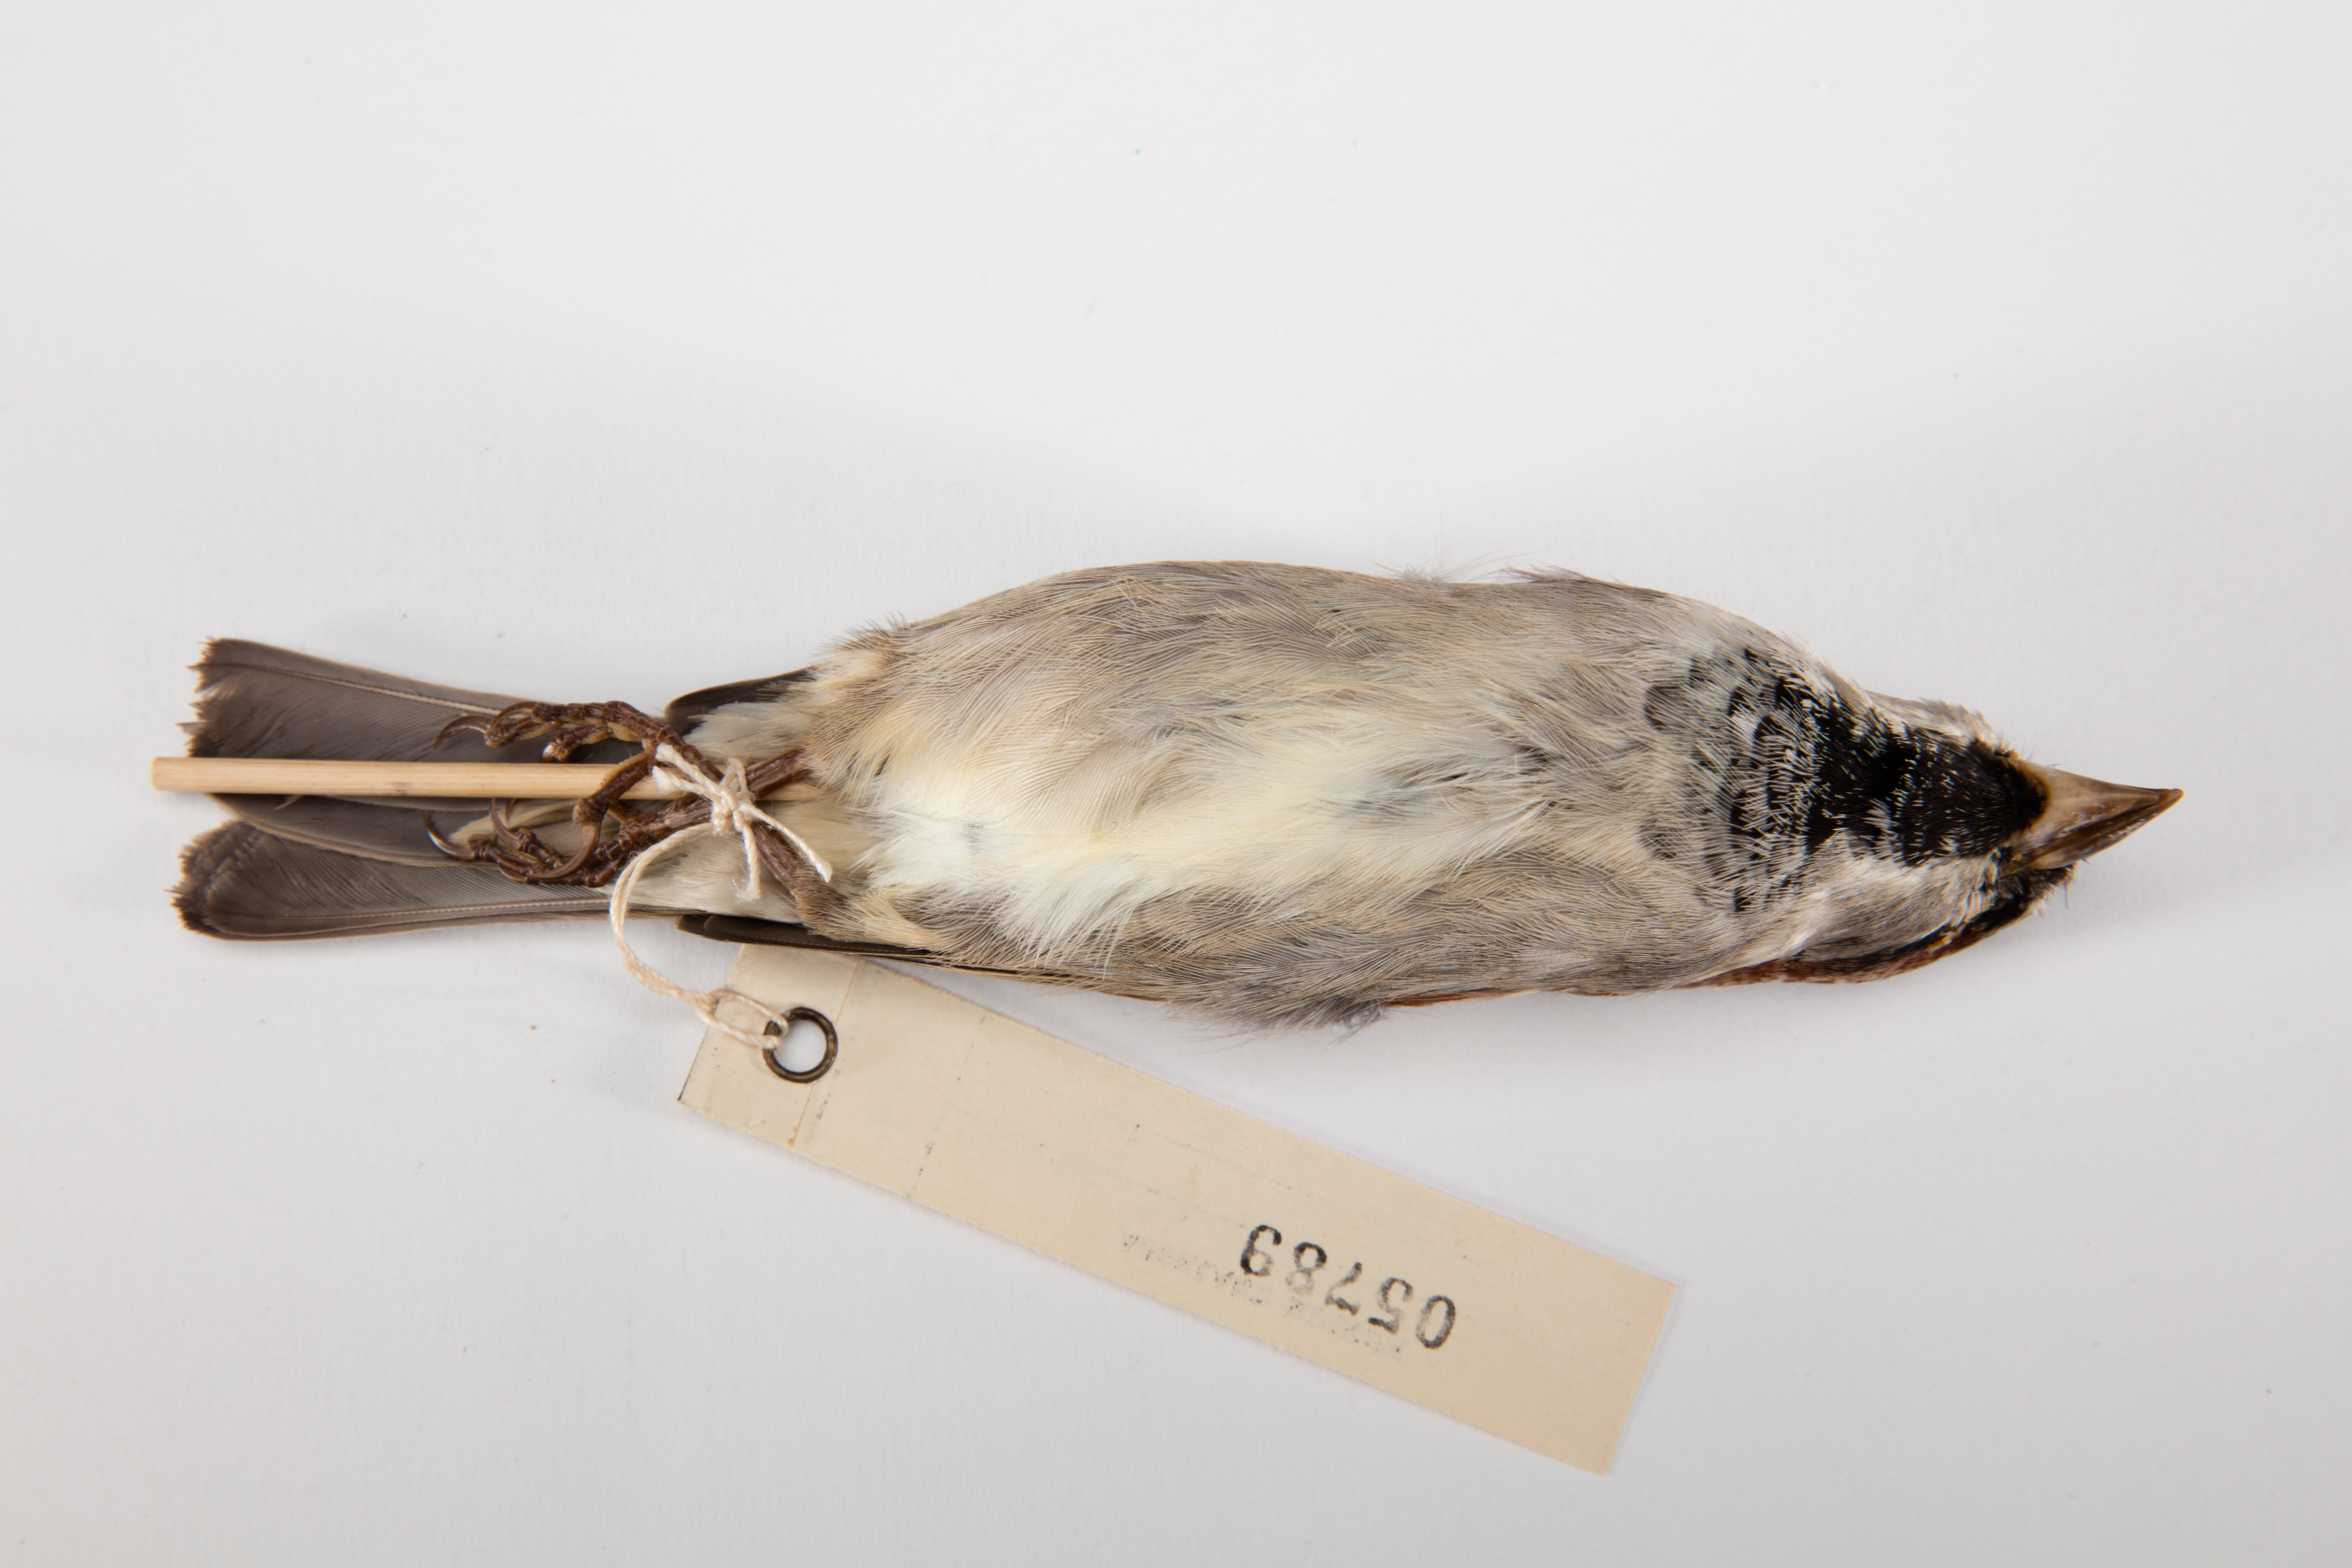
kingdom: Animalia
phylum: Chordata
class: Aves
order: Passeriformes
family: Passeridae
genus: Passer
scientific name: Passer domesticus
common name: House sparrow
